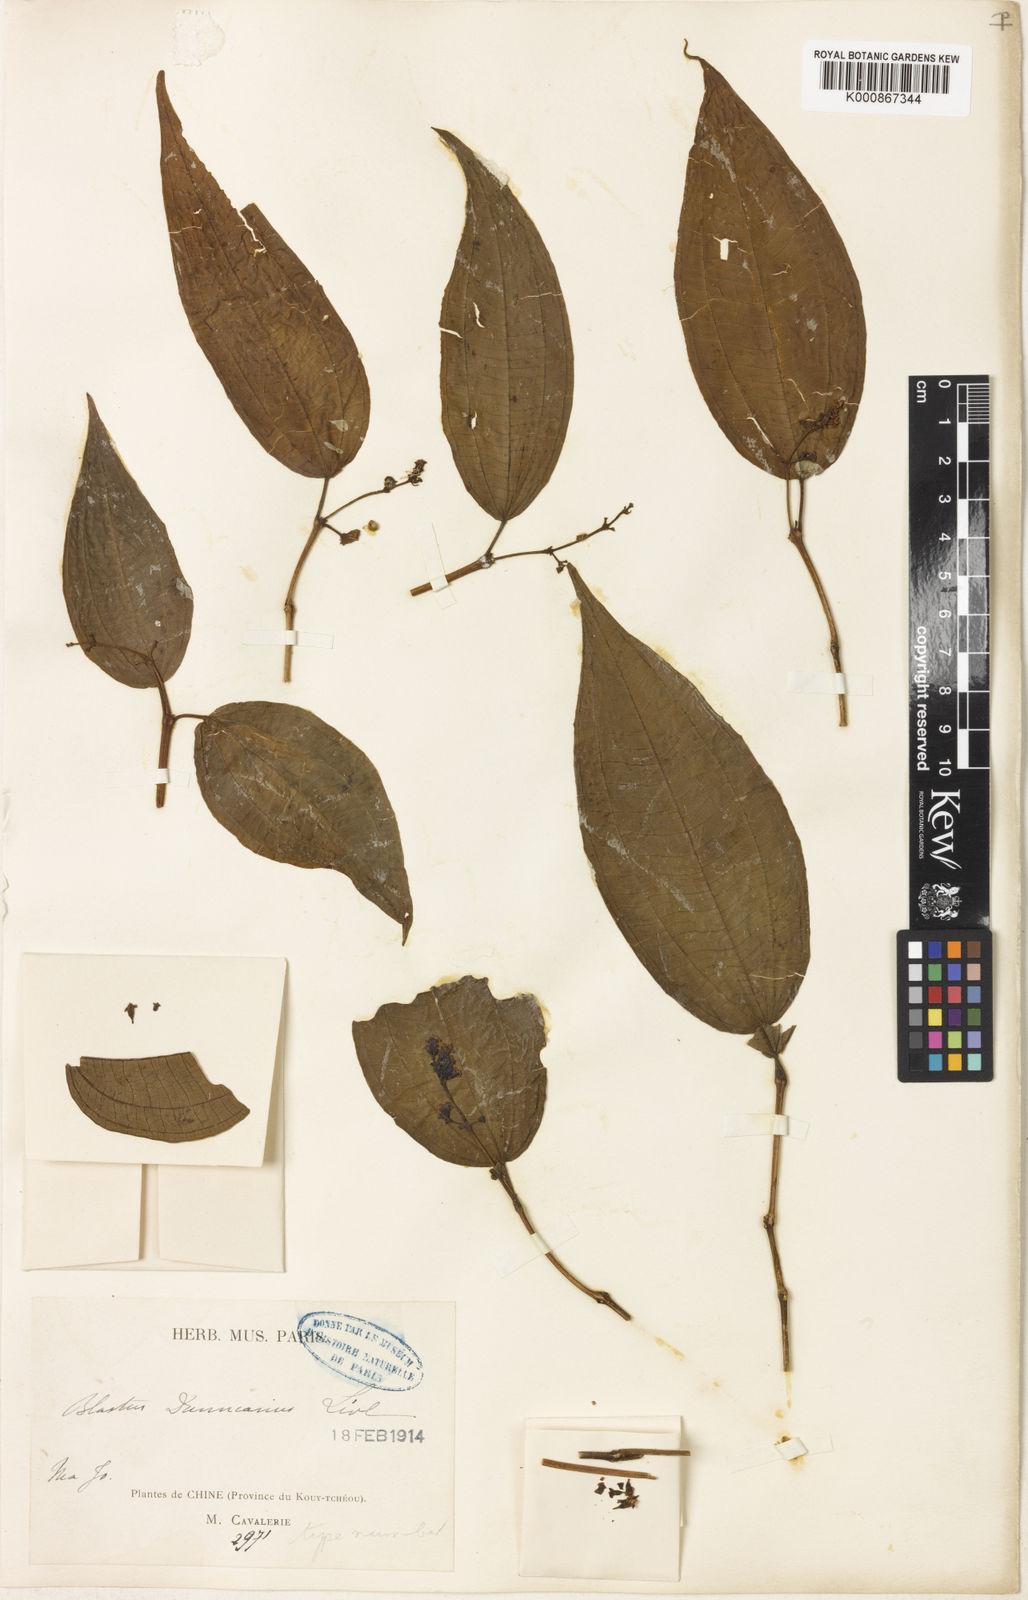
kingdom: Plantae
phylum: Tracheophyta
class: Magnoliopsida
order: Myrtales
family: Melastomataceae
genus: Blastus
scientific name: Blastus
